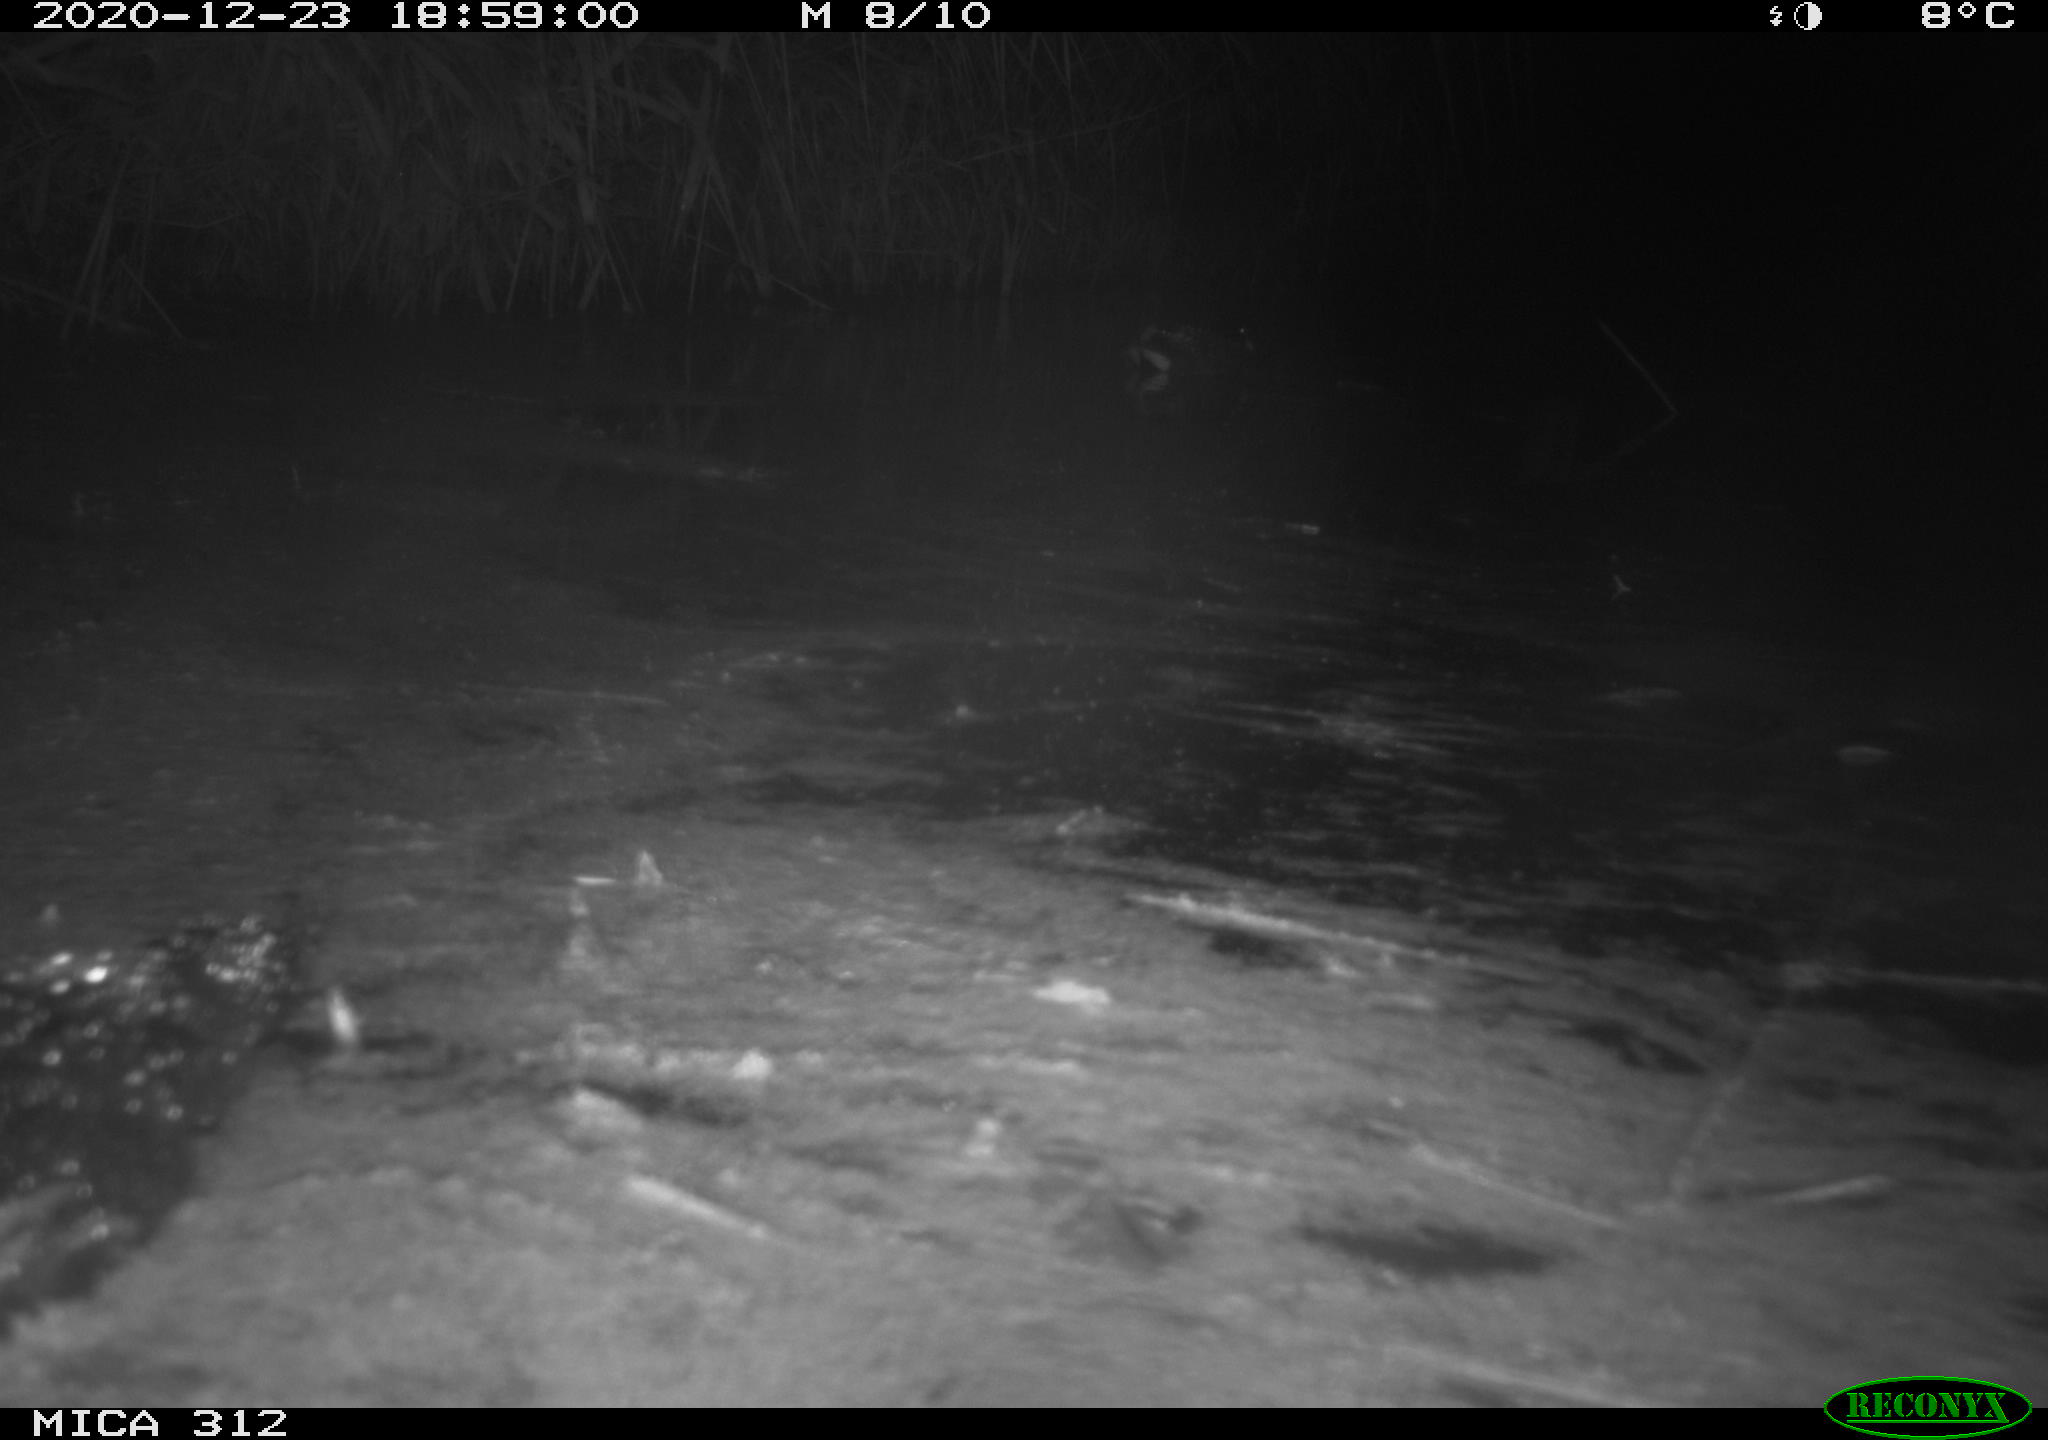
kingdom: Animalia
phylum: Chordata
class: Aves
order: Gruiformes
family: Rallidae
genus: Gallinula
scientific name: Gallinula chloropus
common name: Common moorhen
